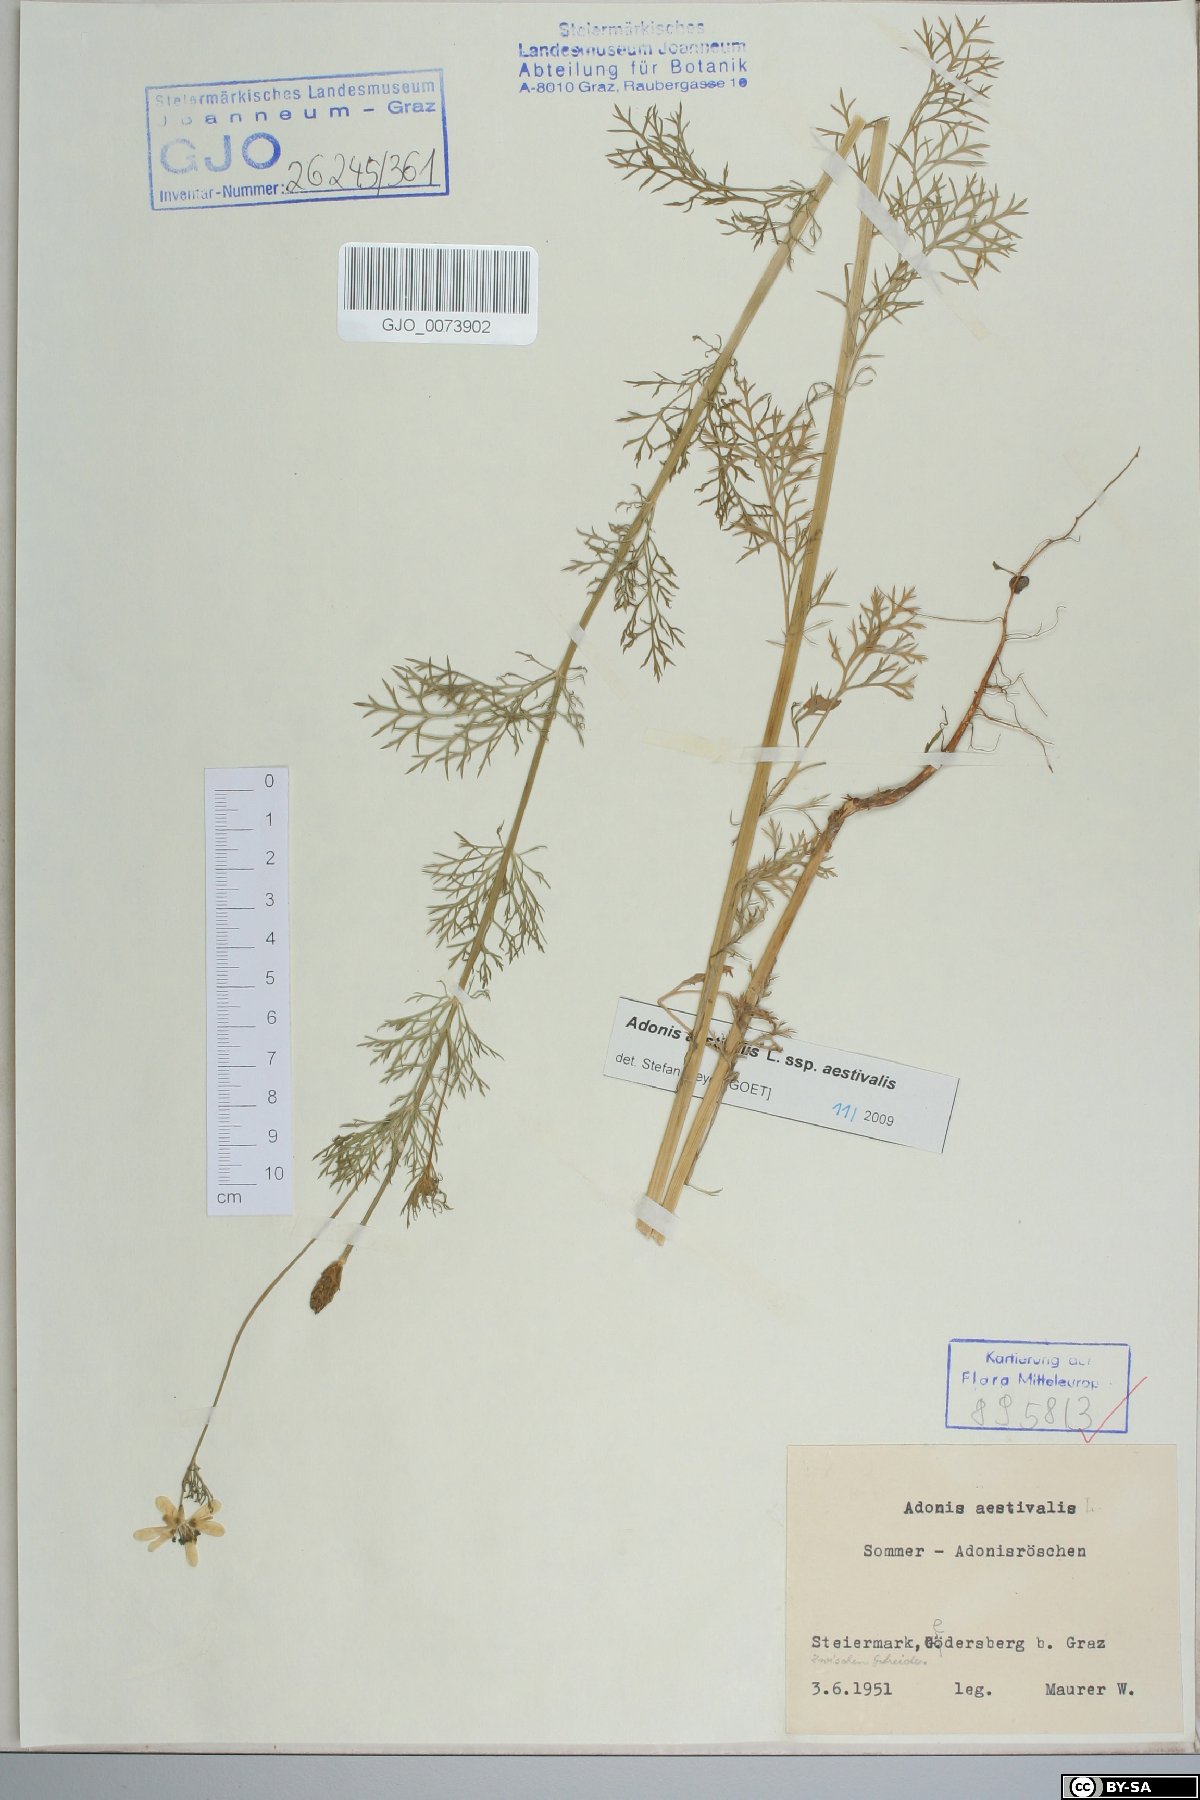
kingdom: Plantae
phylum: Tracheophyta
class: Magnoliopsida
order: Ranunculales
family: Ranunculaceae
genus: Adonis
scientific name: Adonis aestivalis
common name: Summer pheasant's-eye
